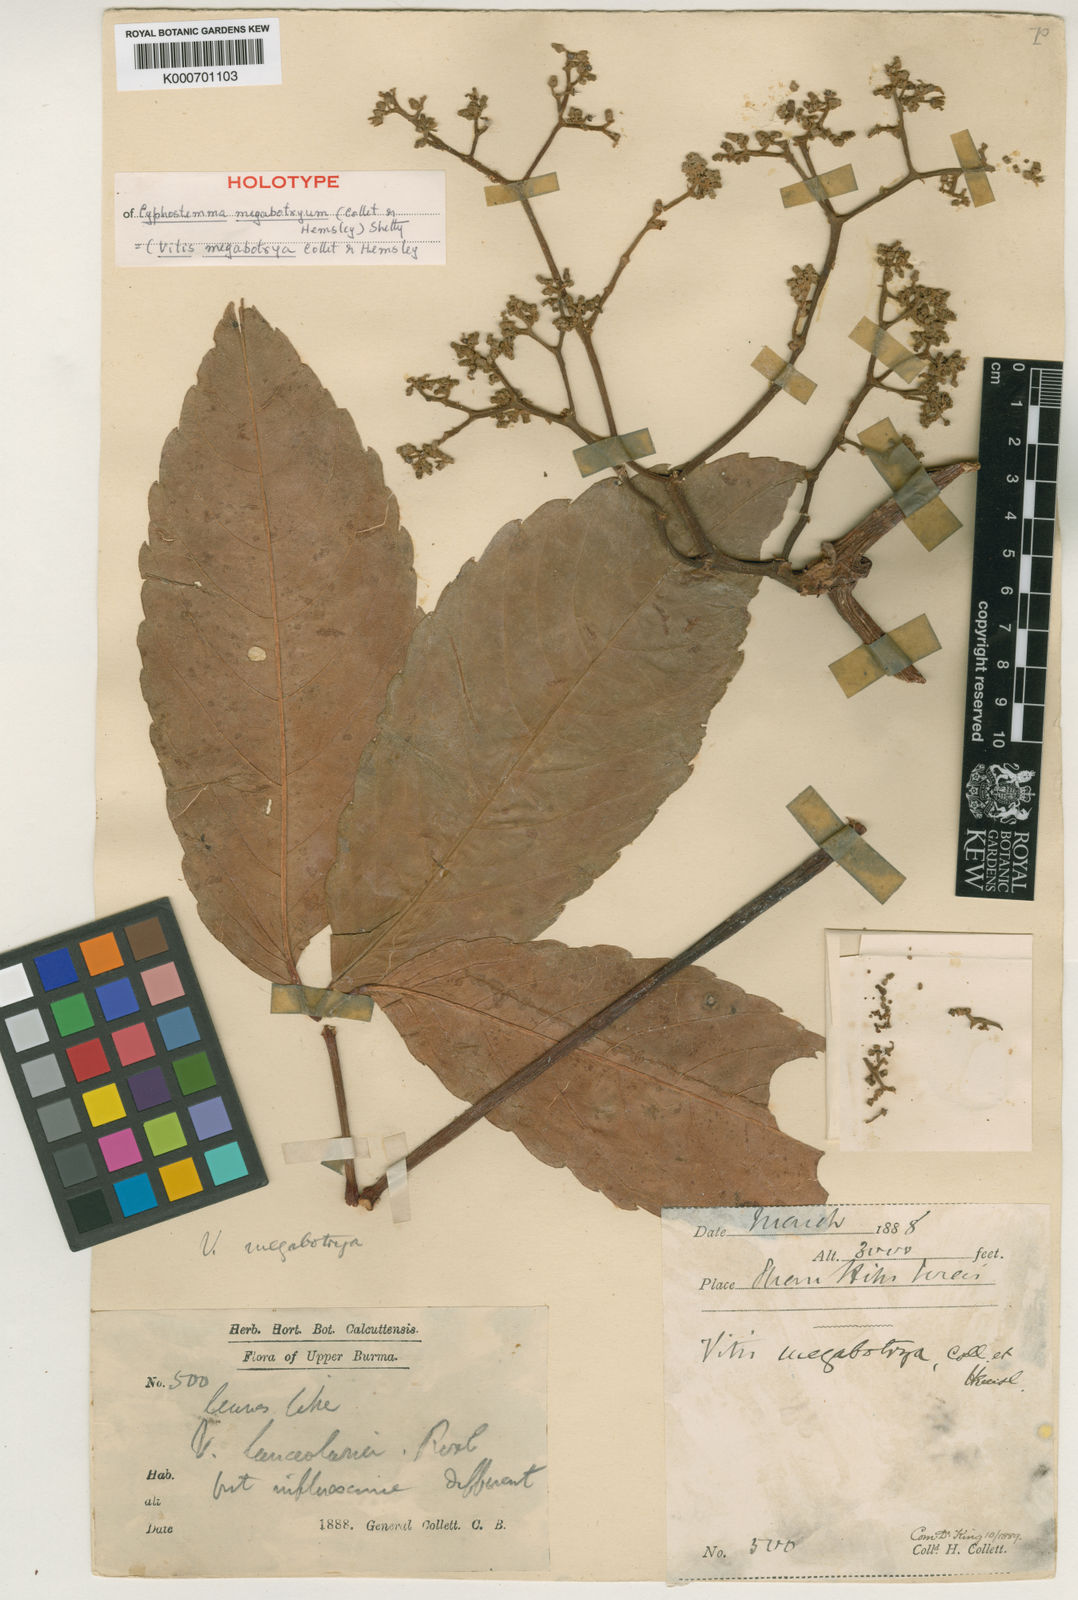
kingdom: Plantae
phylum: Tracheophyta
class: Magnoliopsida
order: Vitales
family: Vitaceae
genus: Tetrastigma
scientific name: Tetrastigma
